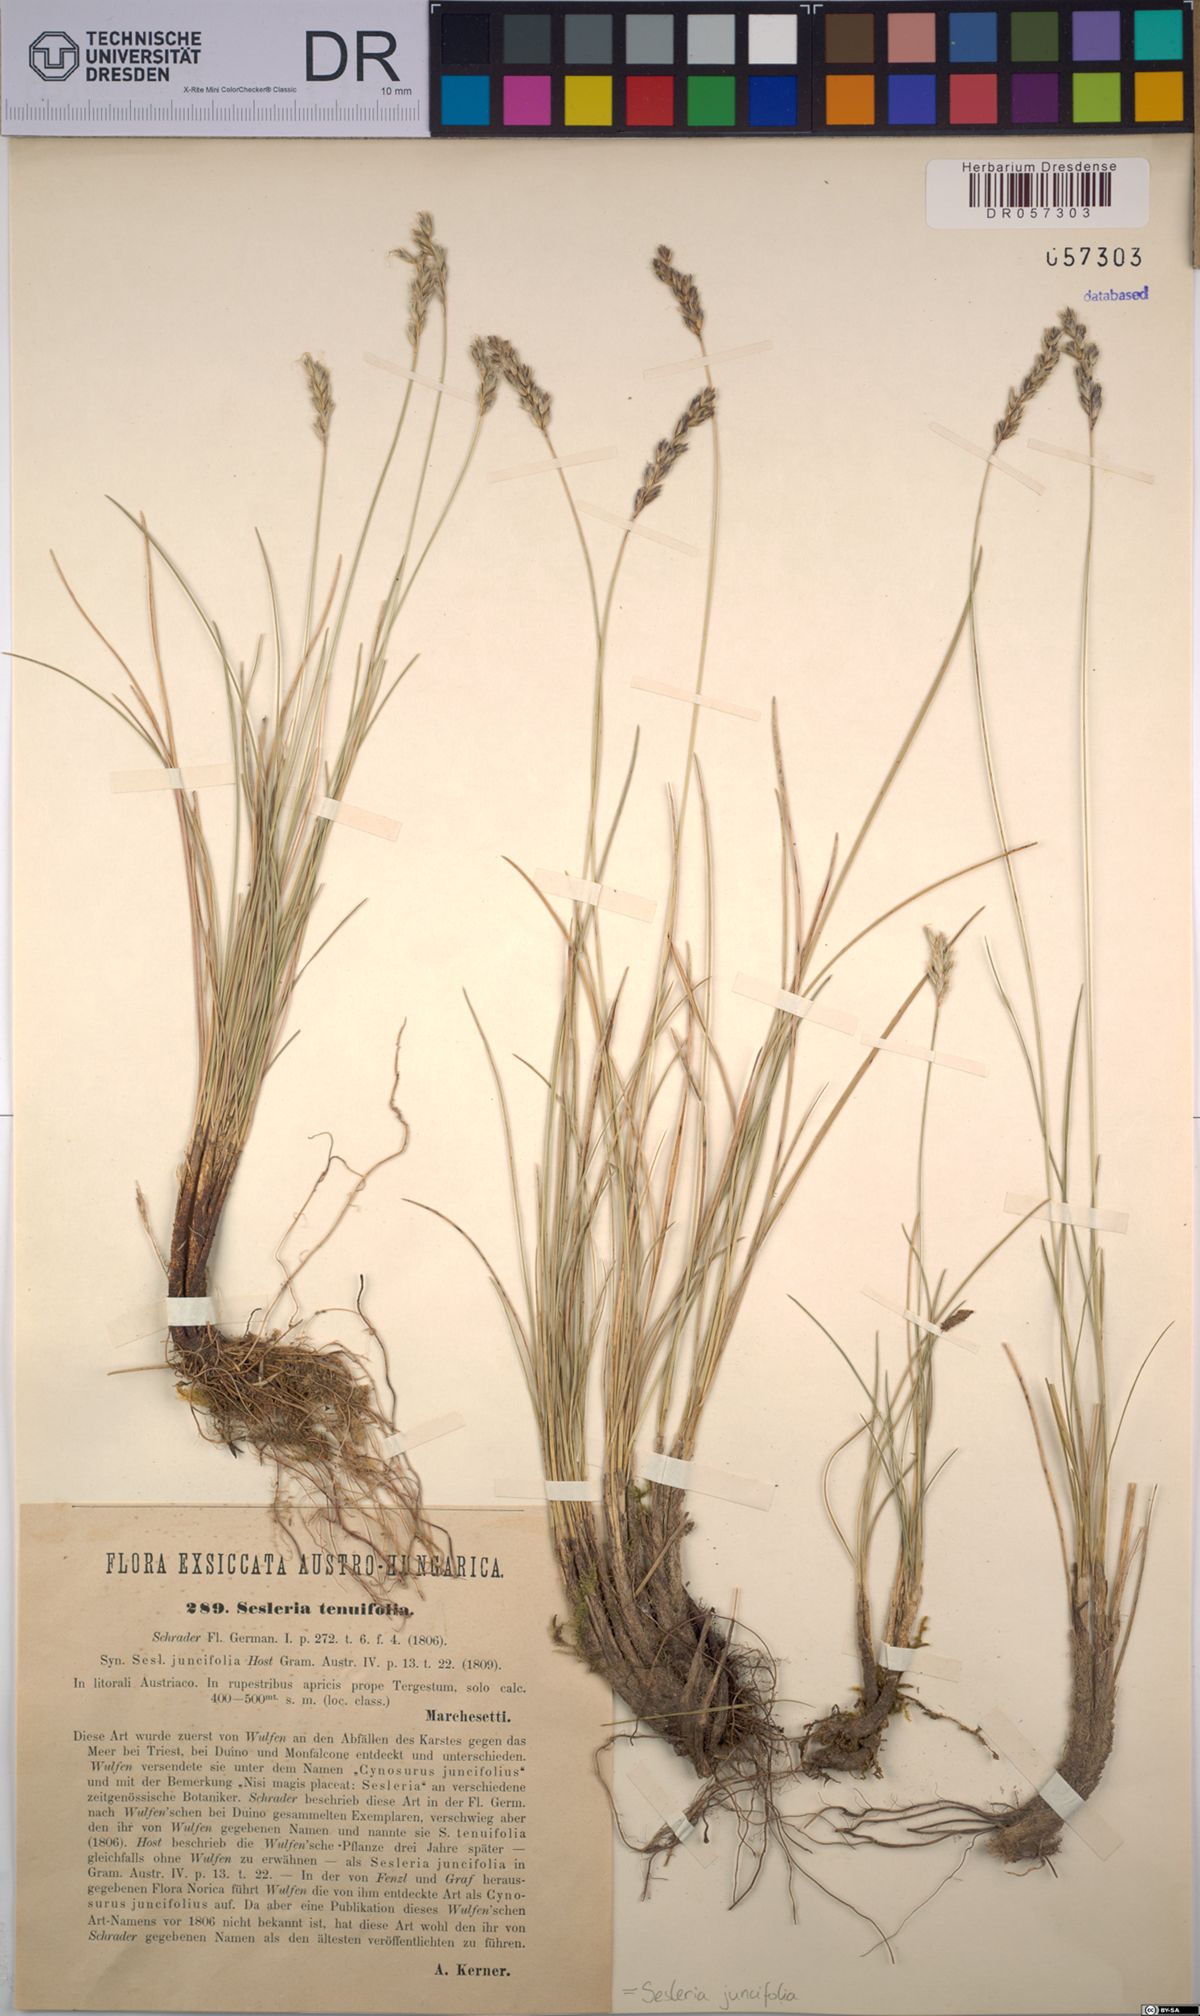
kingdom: Plantae
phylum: Tracheophyta
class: Liliopsida
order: Poales
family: Poaceae
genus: Sesleria
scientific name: Sesleria juncifolia
